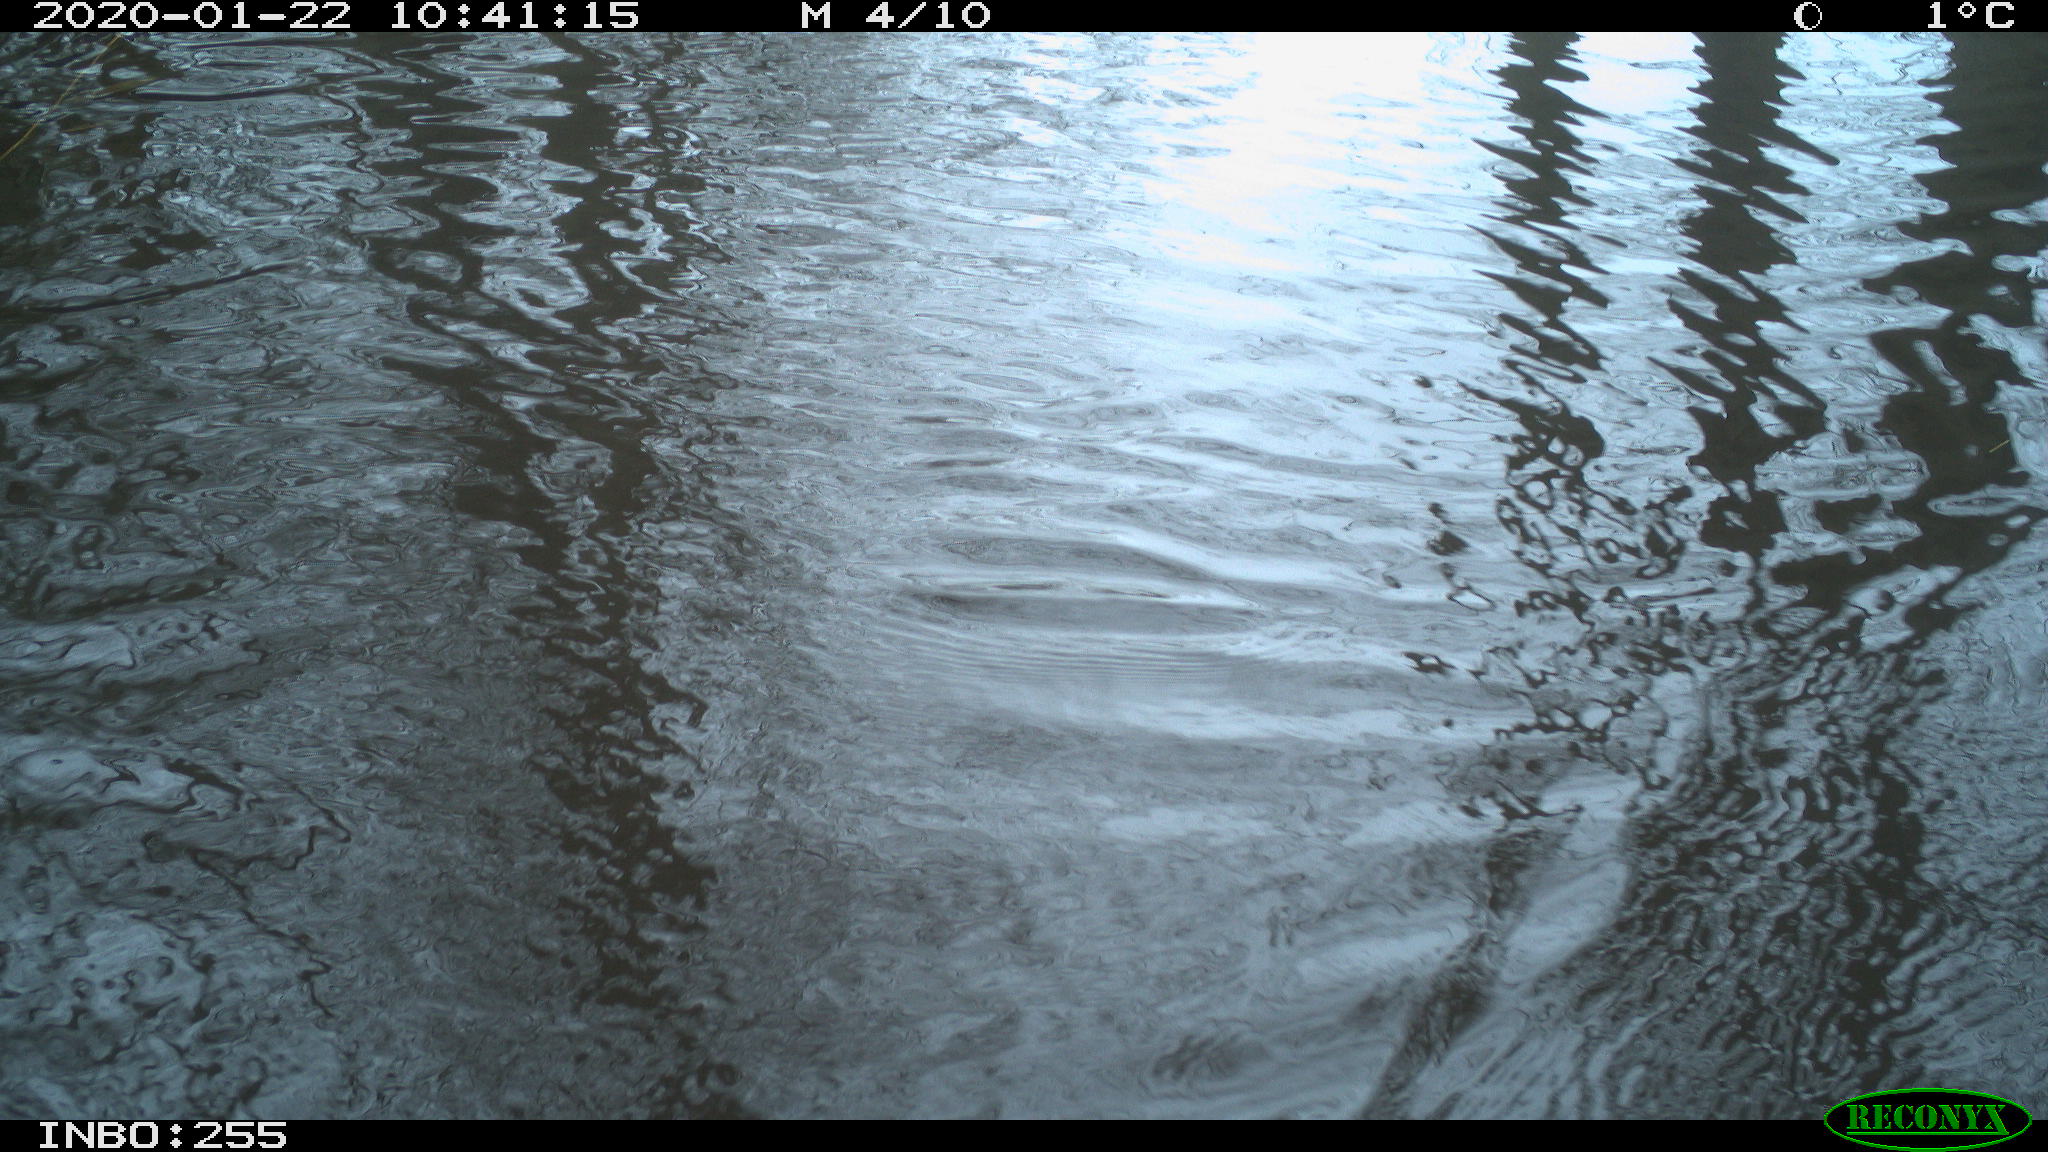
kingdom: Animalia
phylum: Chordata
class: Aves
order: Gruiformes
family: Rallidae
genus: Gallinula
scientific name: Gallinula chloropus
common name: Common moorhen
